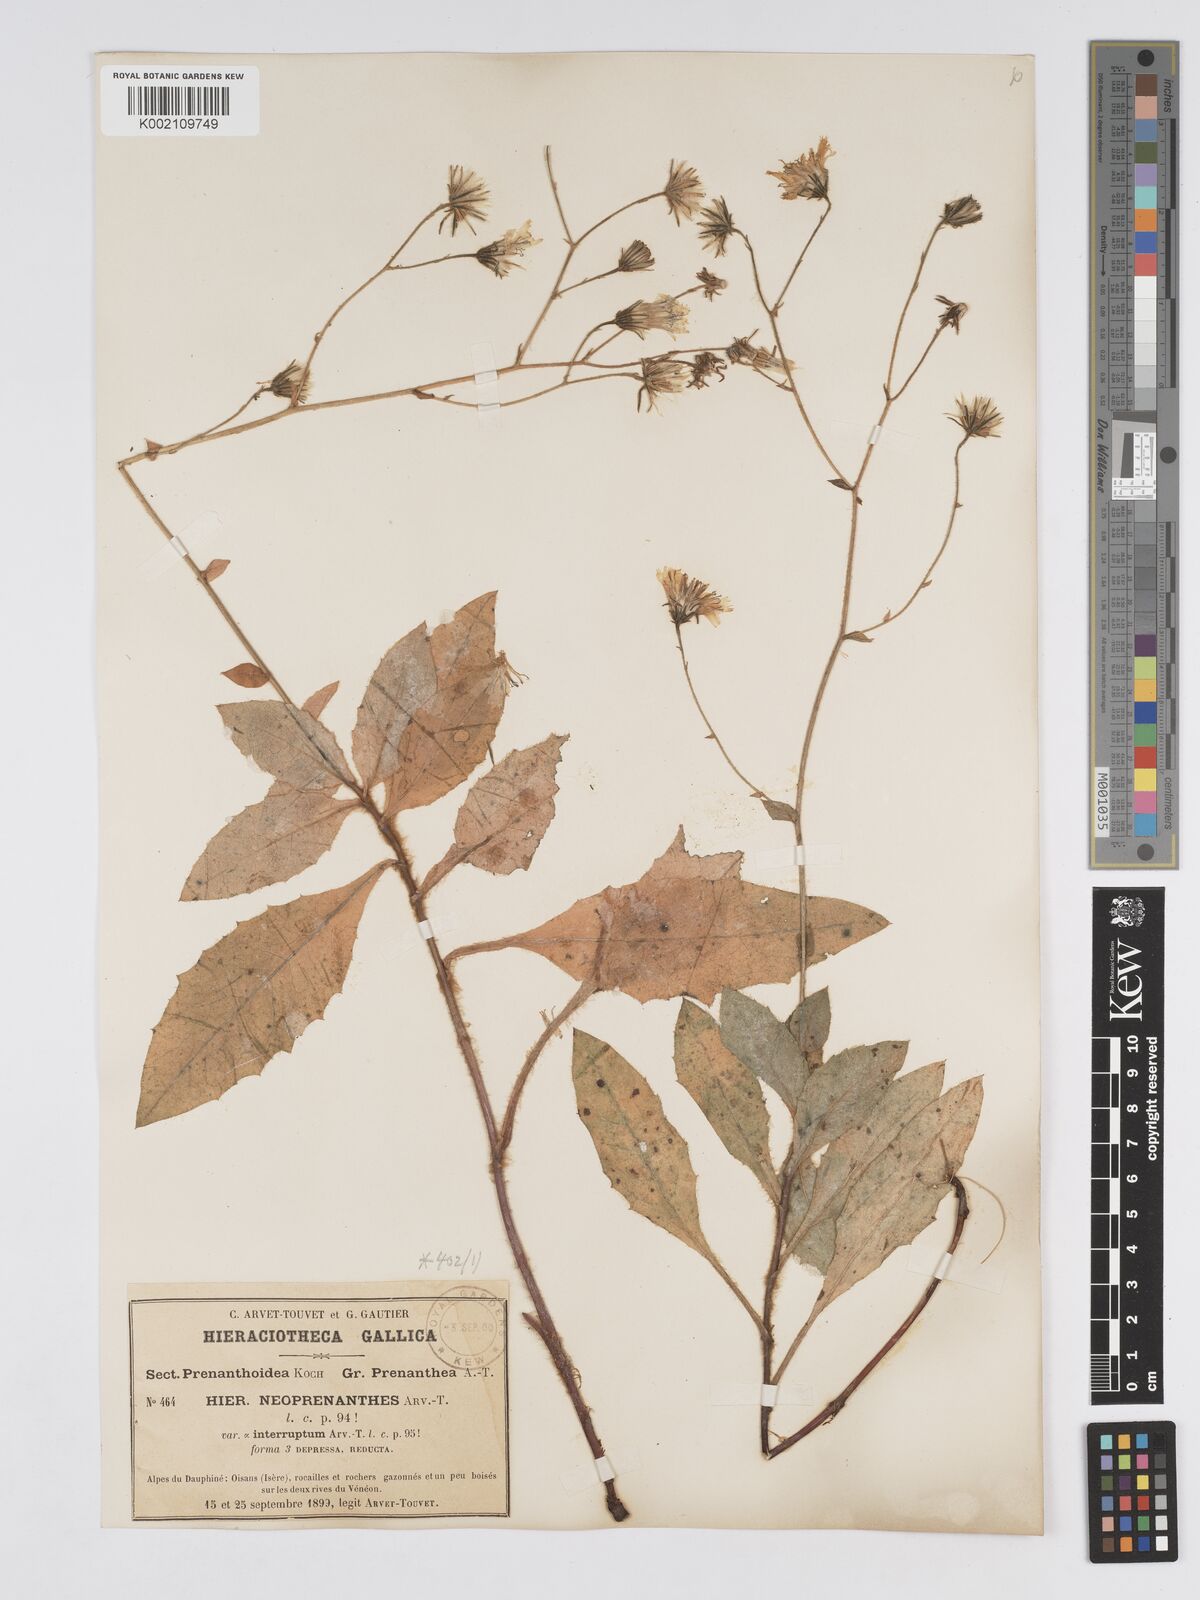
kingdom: Plantae
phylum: Tracheophyta
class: Magnoliopsida
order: Asterales
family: Asteraceae
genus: Hieracium
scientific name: Hieracium symphytaceum
